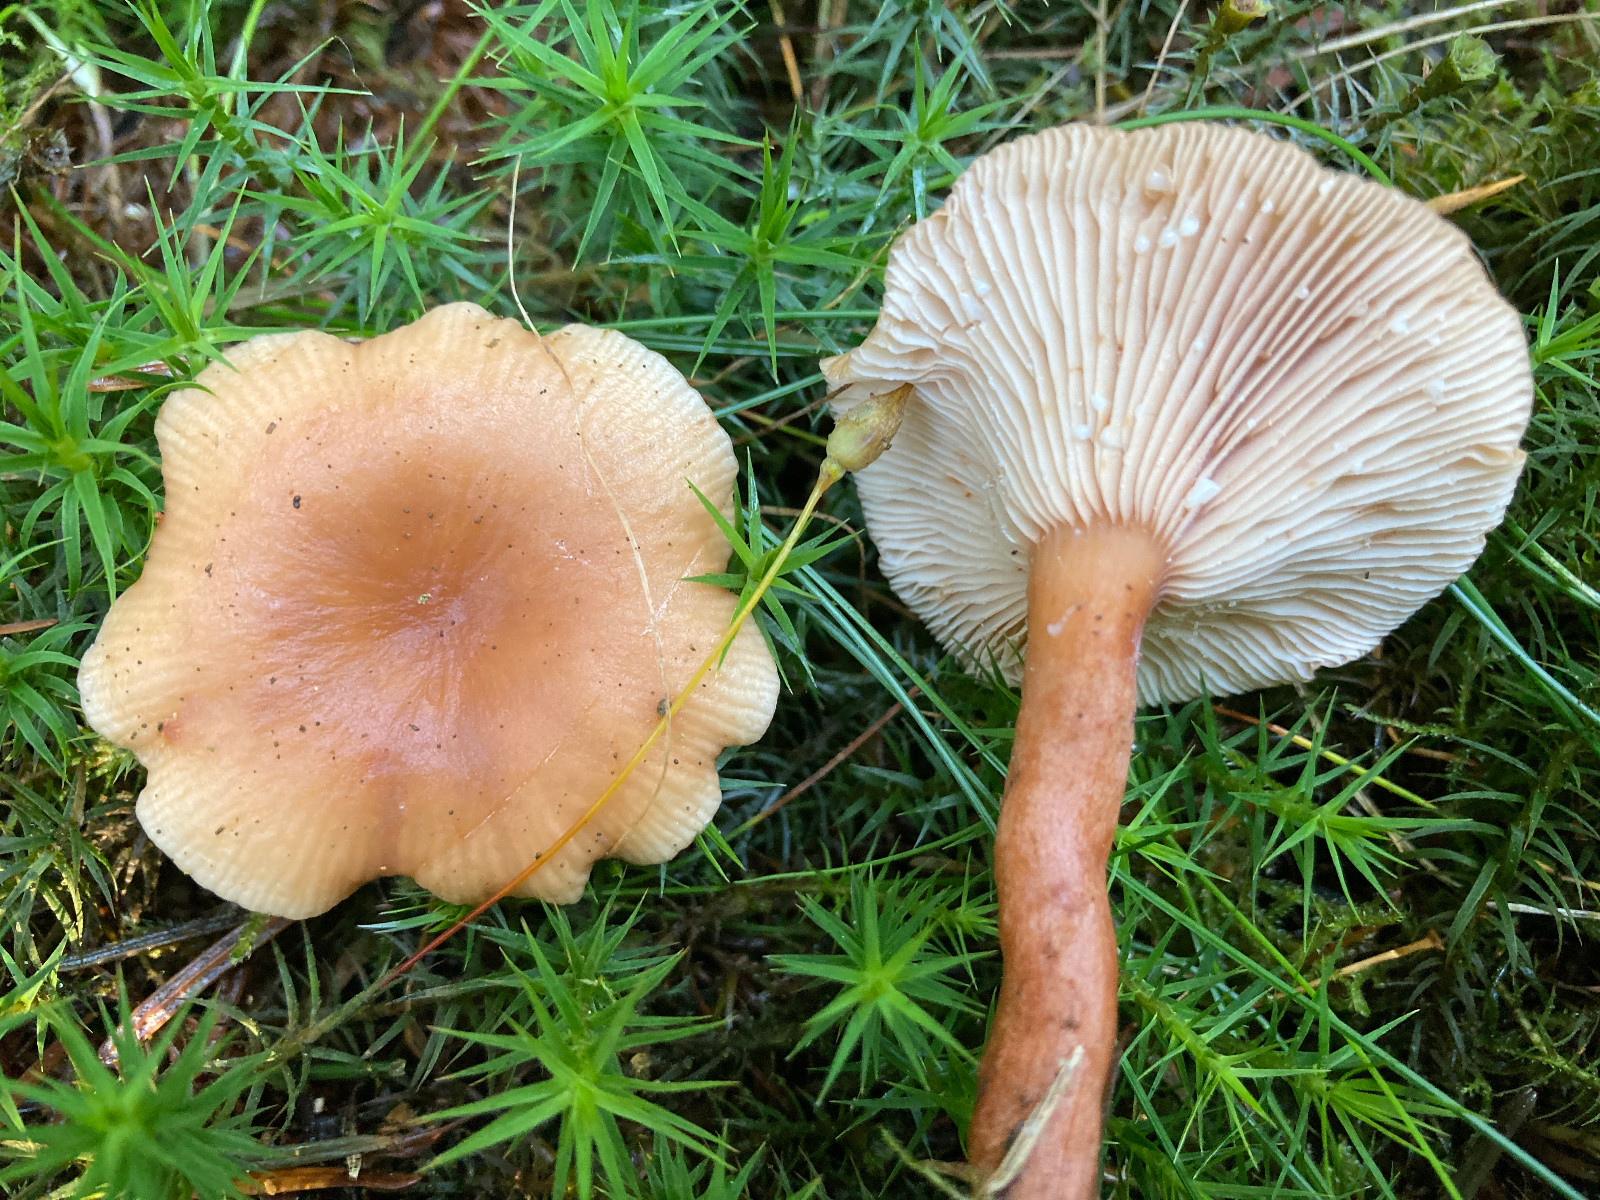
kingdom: Fungi
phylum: Basidiomycota
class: Agaricomycetes
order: Russulales
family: Russulaceae
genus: Lactarius
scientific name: Lactarius tabidus
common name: rynket mælkehat
